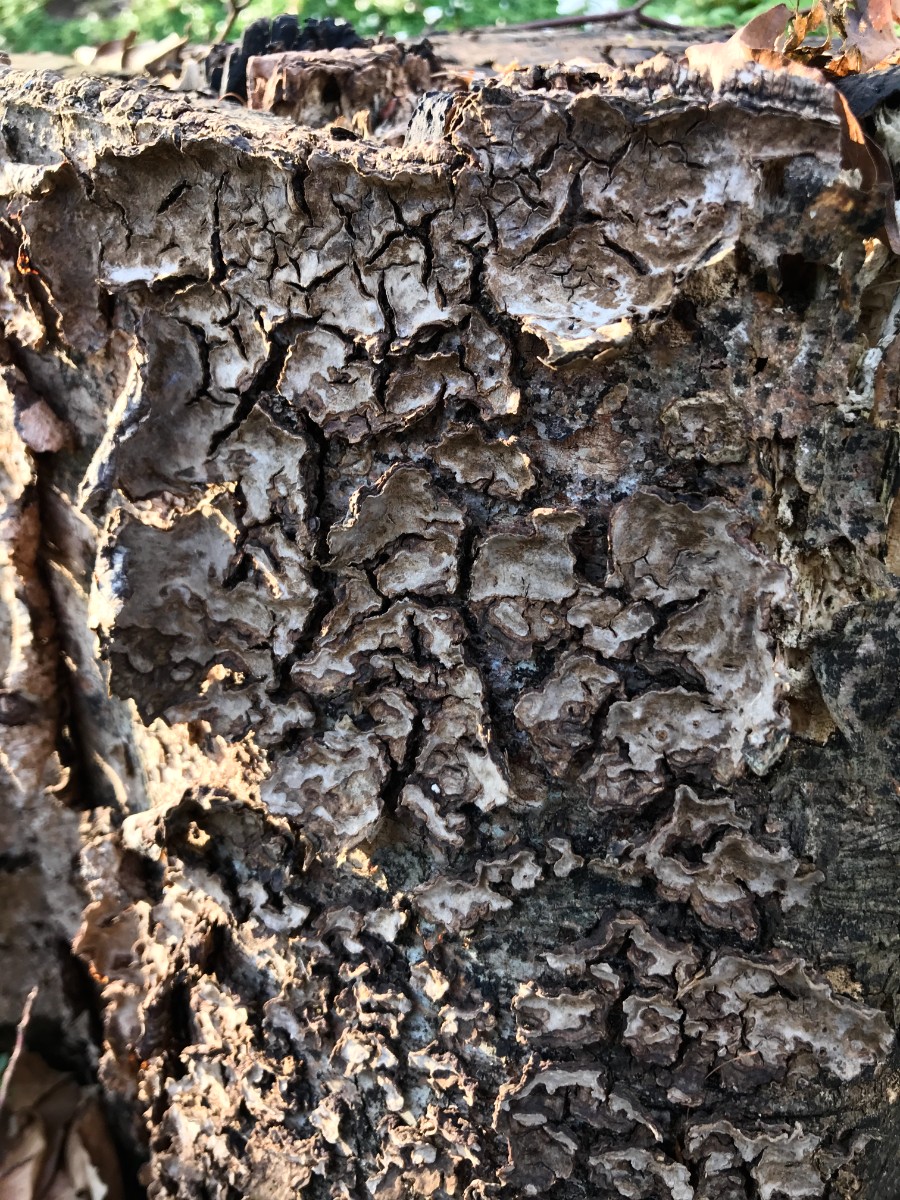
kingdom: Fungi
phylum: Basidiomycota
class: Agaricomycetes
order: Russulales
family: Stereaceae
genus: Stereum
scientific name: Stereum rugosum
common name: rynket lædersvamp
